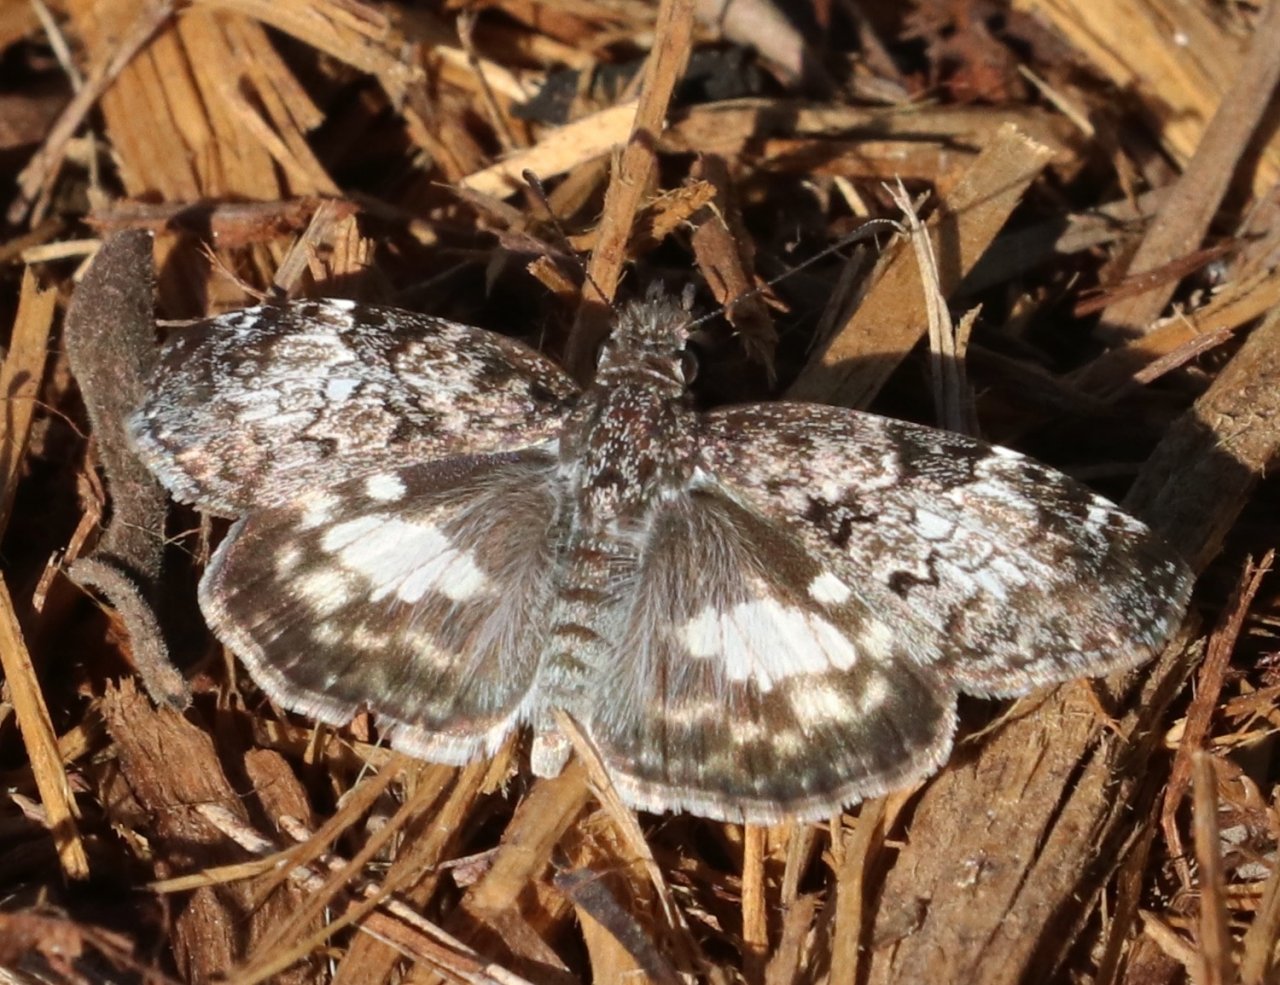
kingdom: Animalia
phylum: Arthropoda
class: Insecta
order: Lepidoptera
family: Hesperiidae
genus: Chiomara
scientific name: Chiomara asychis
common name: White-patched Skipper
